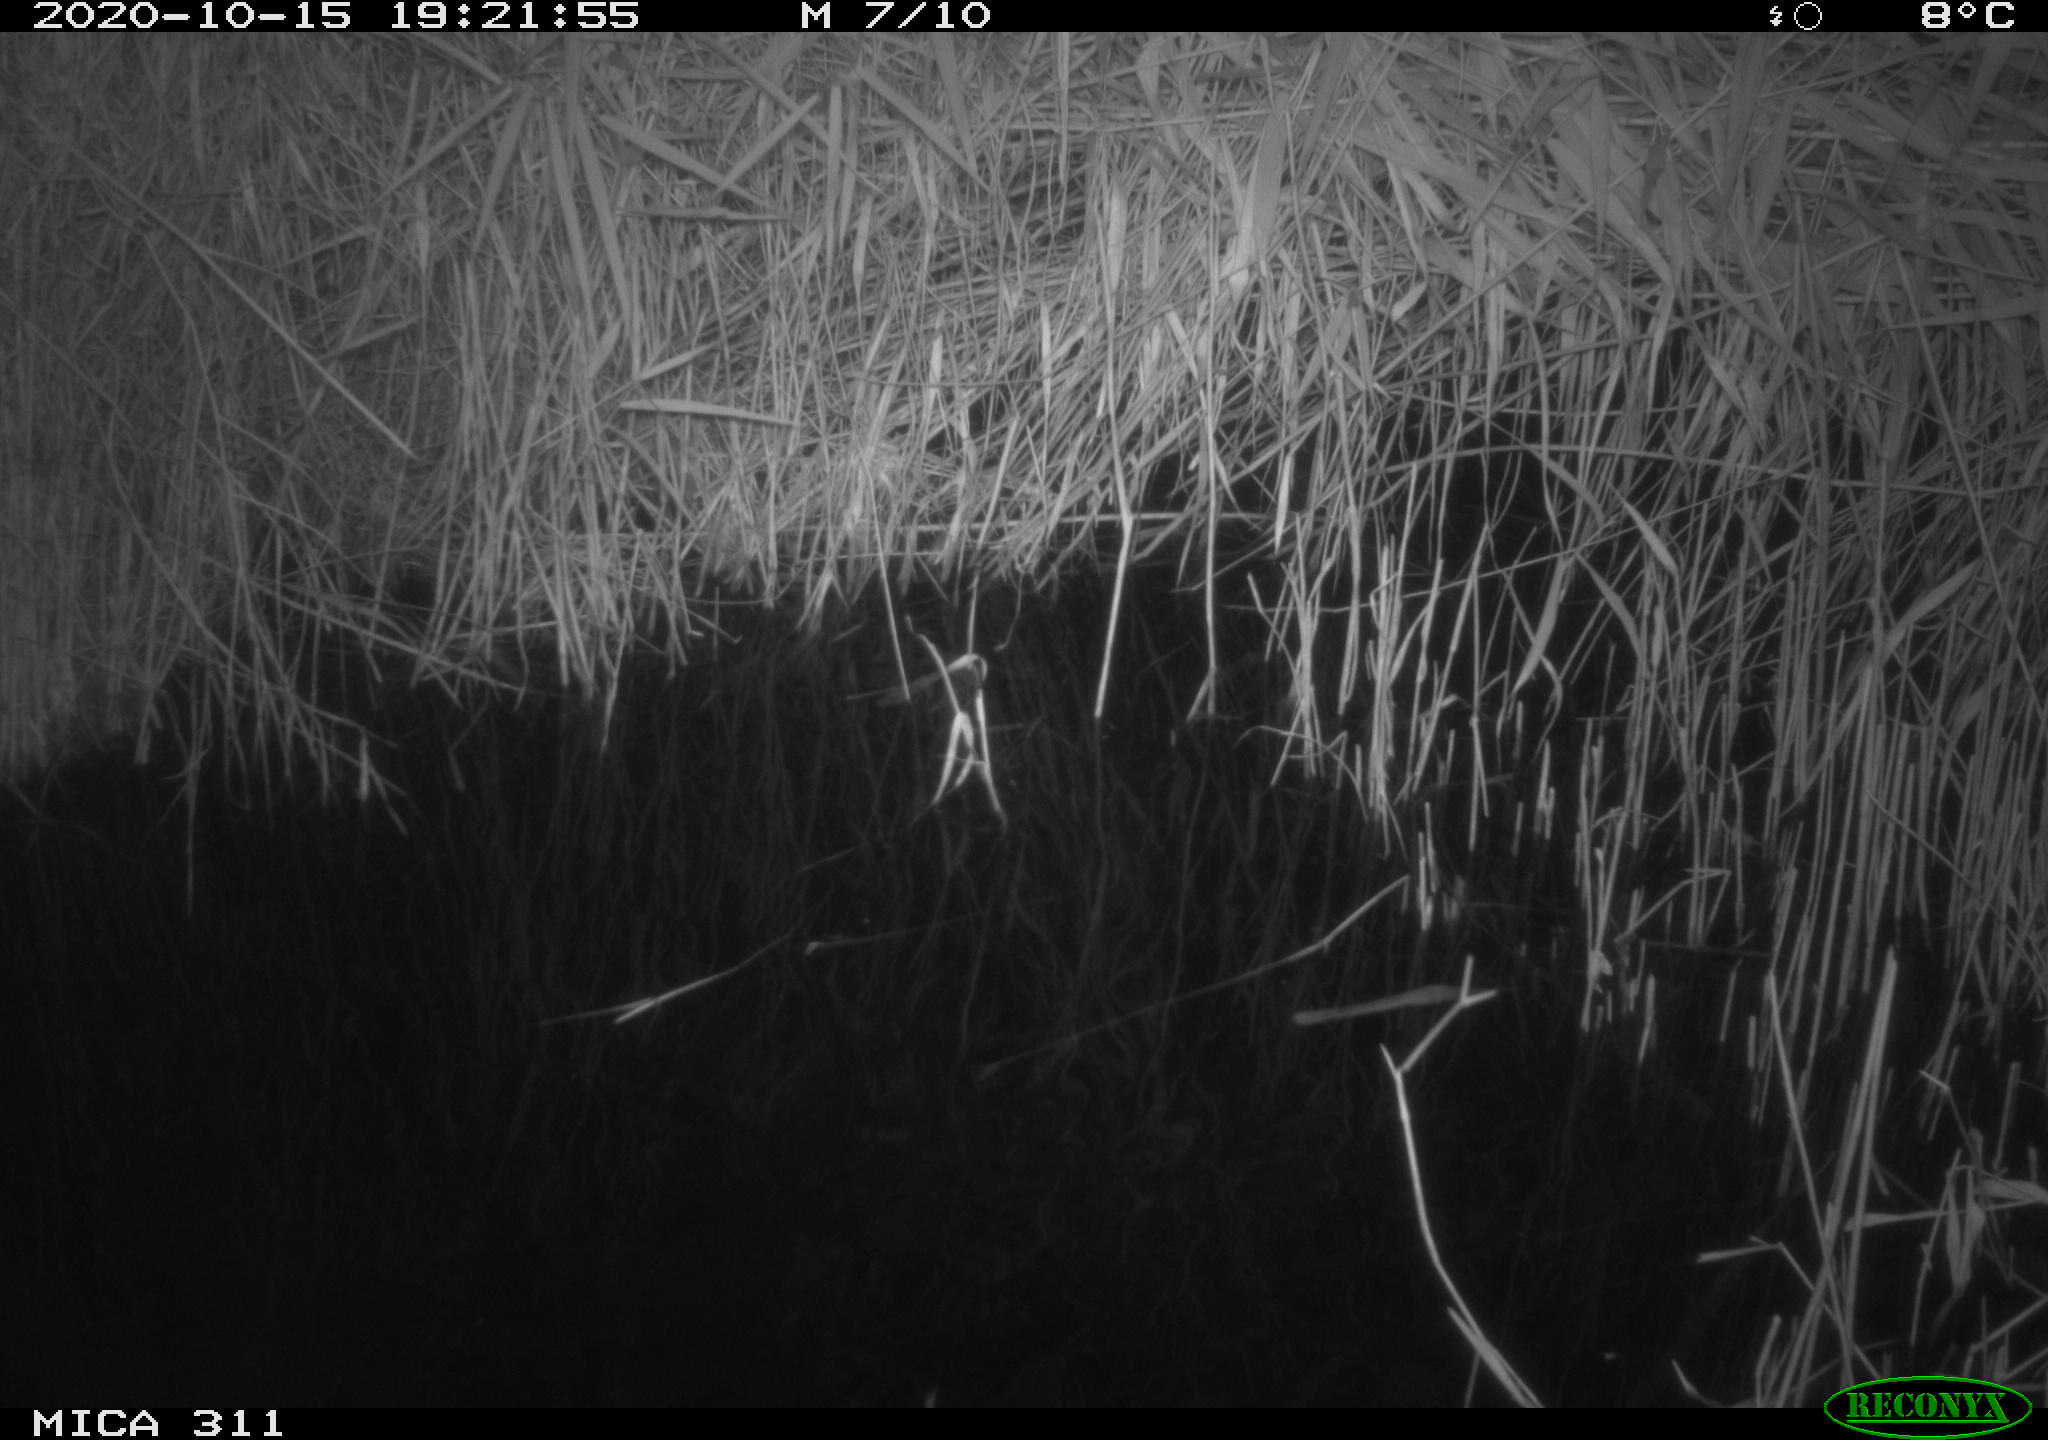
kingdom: Animalia
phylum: Chordata
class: Mammalia
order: Rodentia
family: Muridae
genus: Rattus
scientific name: Rattus norvegicus
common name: Brown rat
